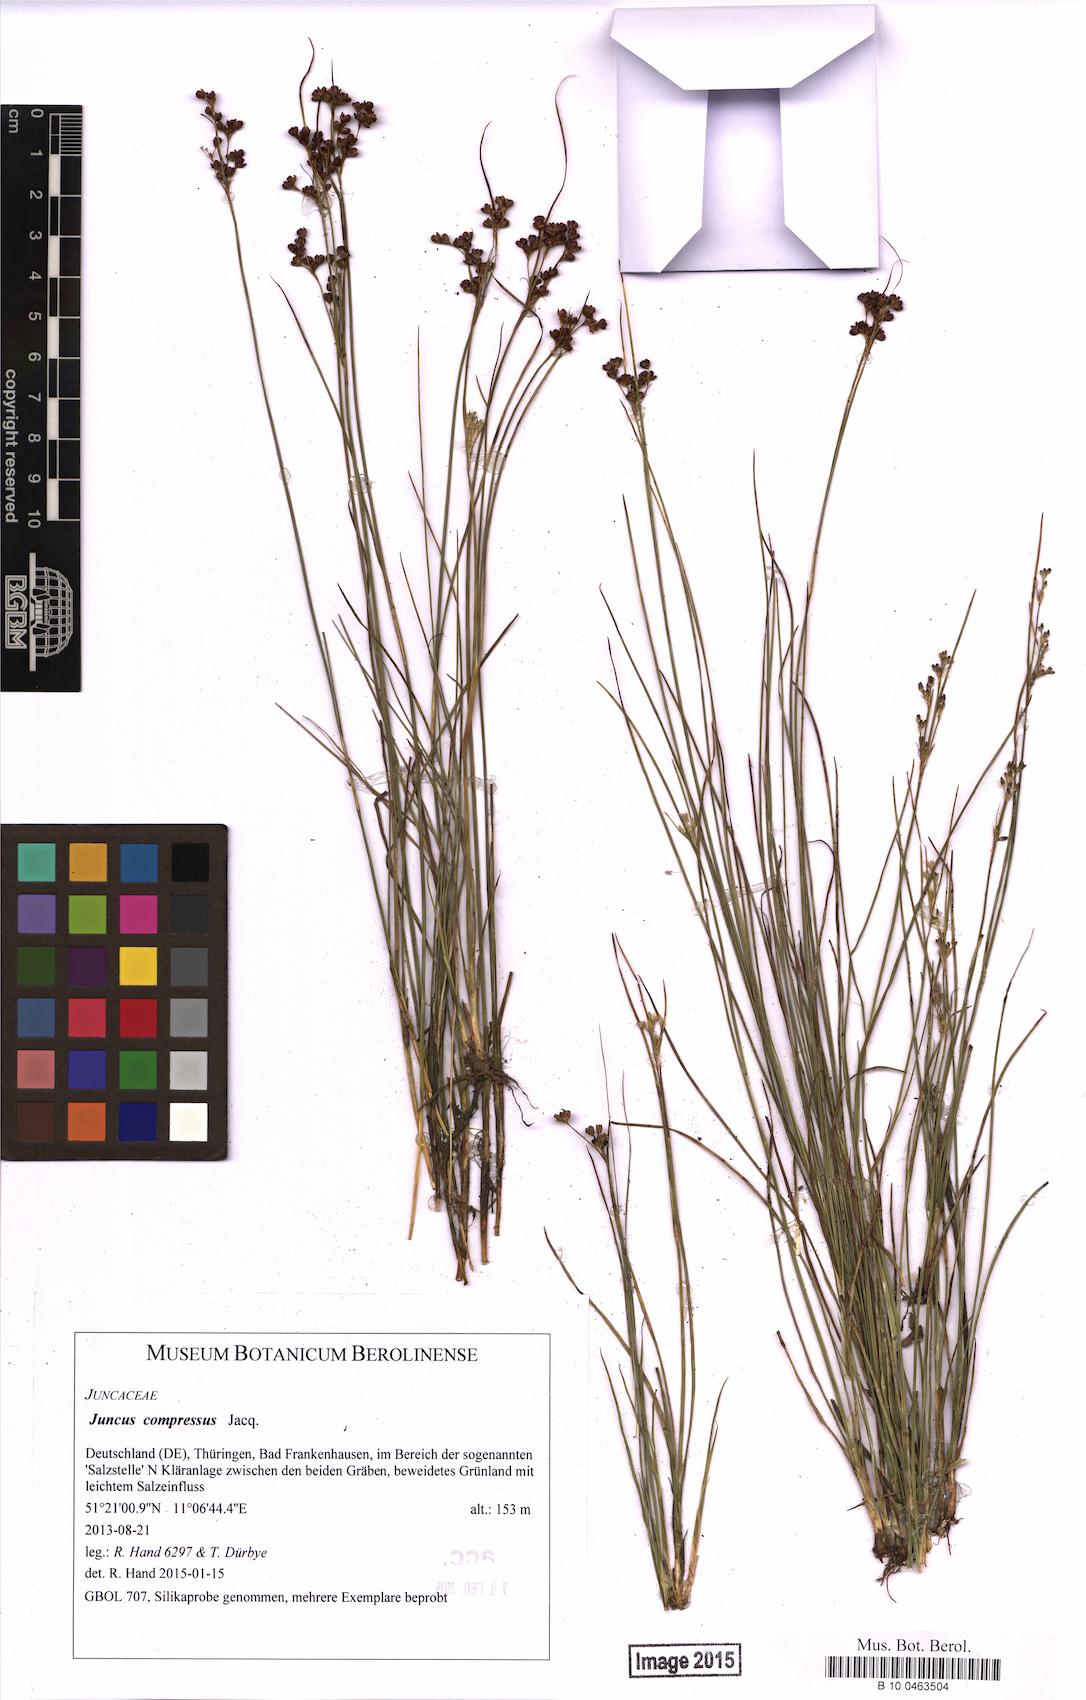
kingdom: Plantae
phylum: Tracheophyta
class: Liliopsida
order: Poales
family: Juncaceae
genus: Juncus
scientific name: Juncus compressus
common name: Round-fruited rush
